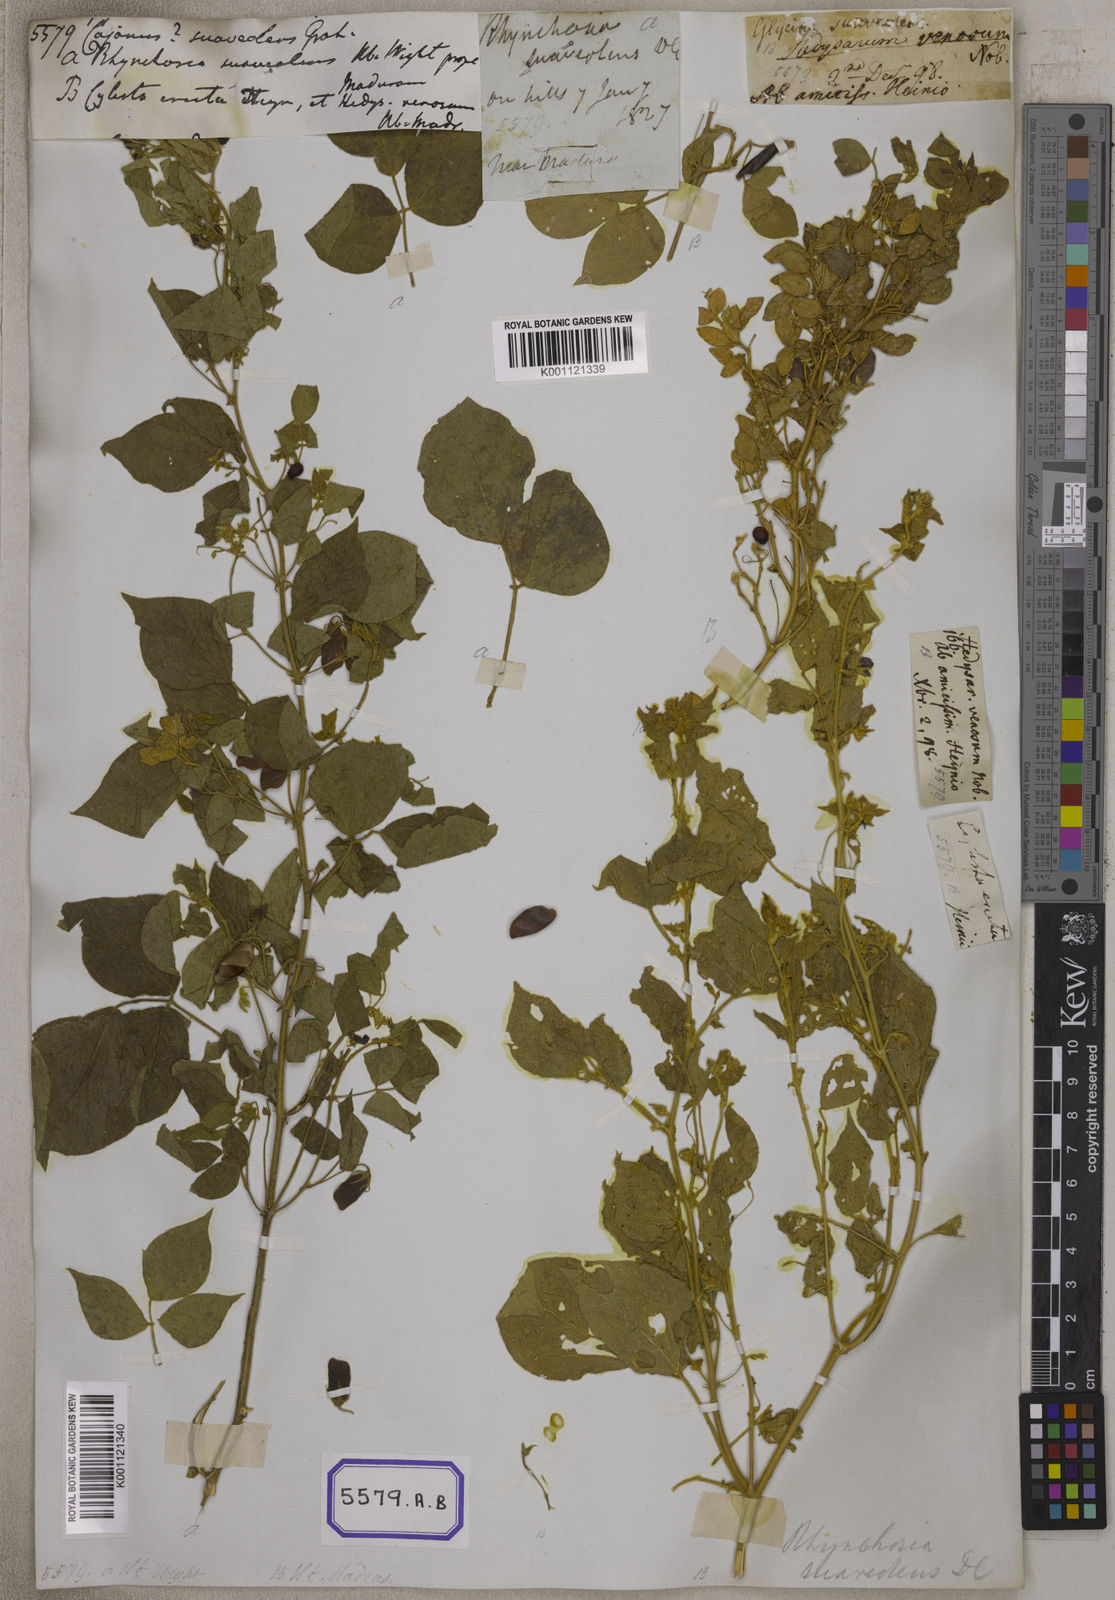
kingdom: Plantae
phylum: Tracheophyta
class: Magnoliopsida
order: Fabales
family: Fabaceae
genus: Rhynchosia
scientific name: Rhynchosia suaveolens
